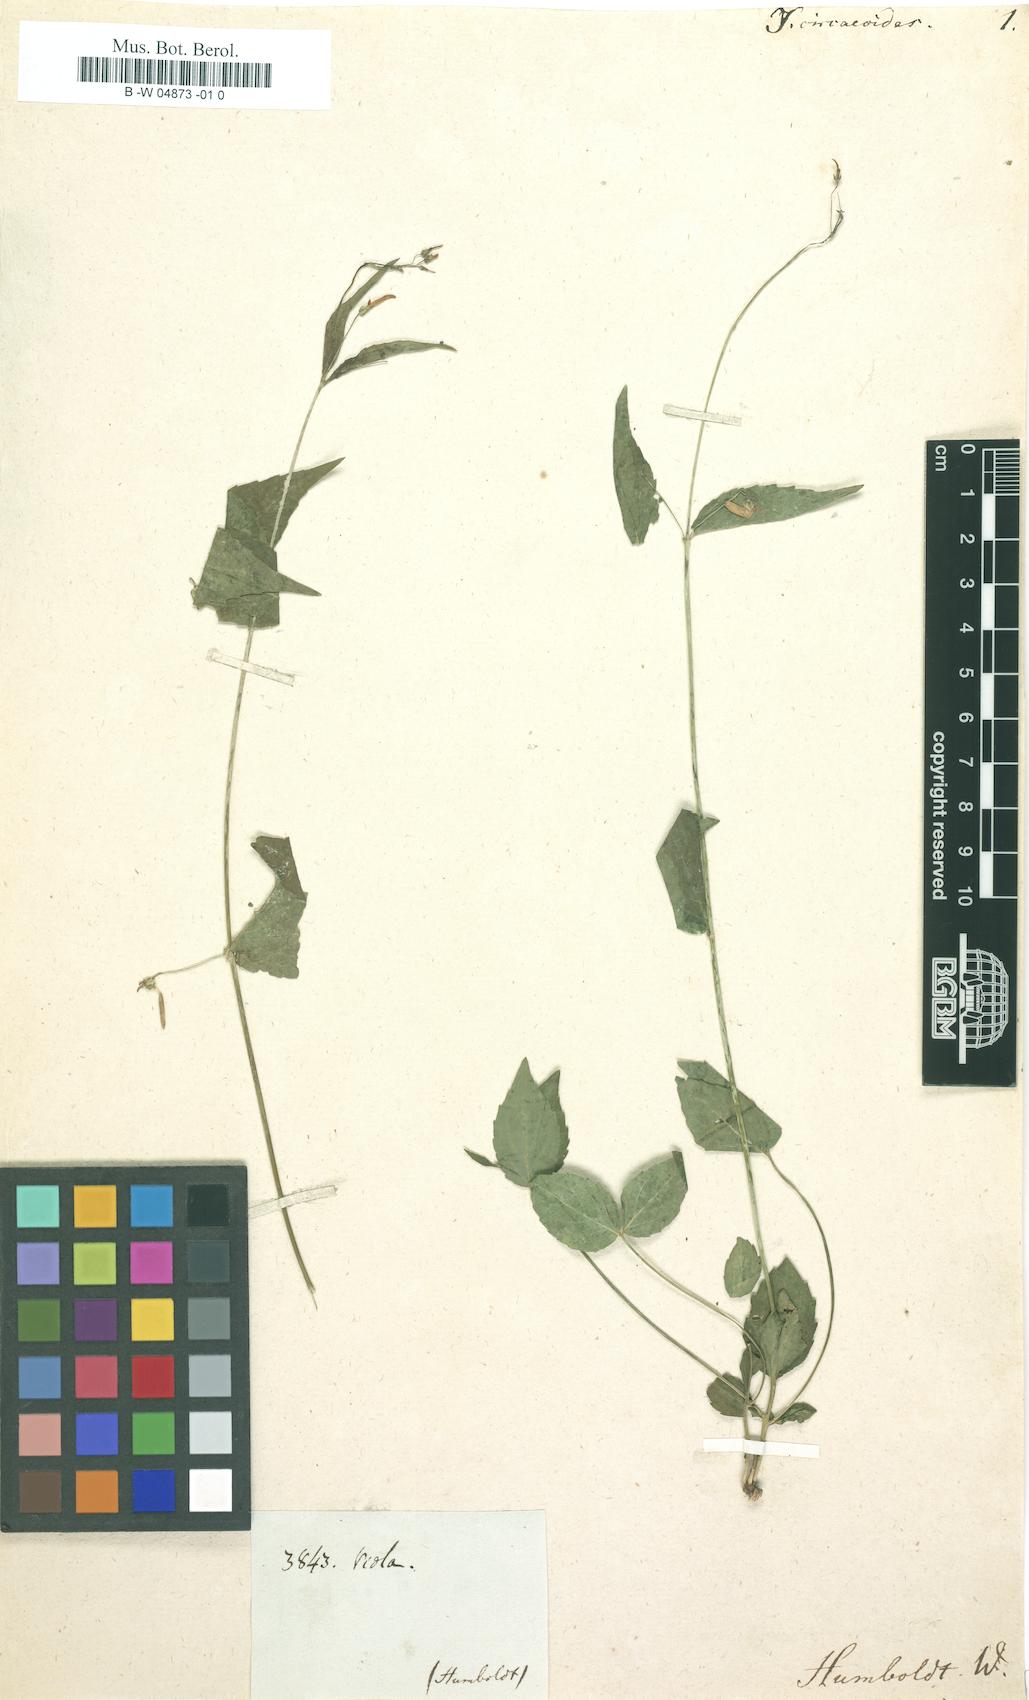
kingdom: Plantae
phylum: Tracheophyta
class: Magnoliopsida
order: Malpighiales
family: Violaceae
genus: Pombalia
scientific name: Pombalia oppositifolia
